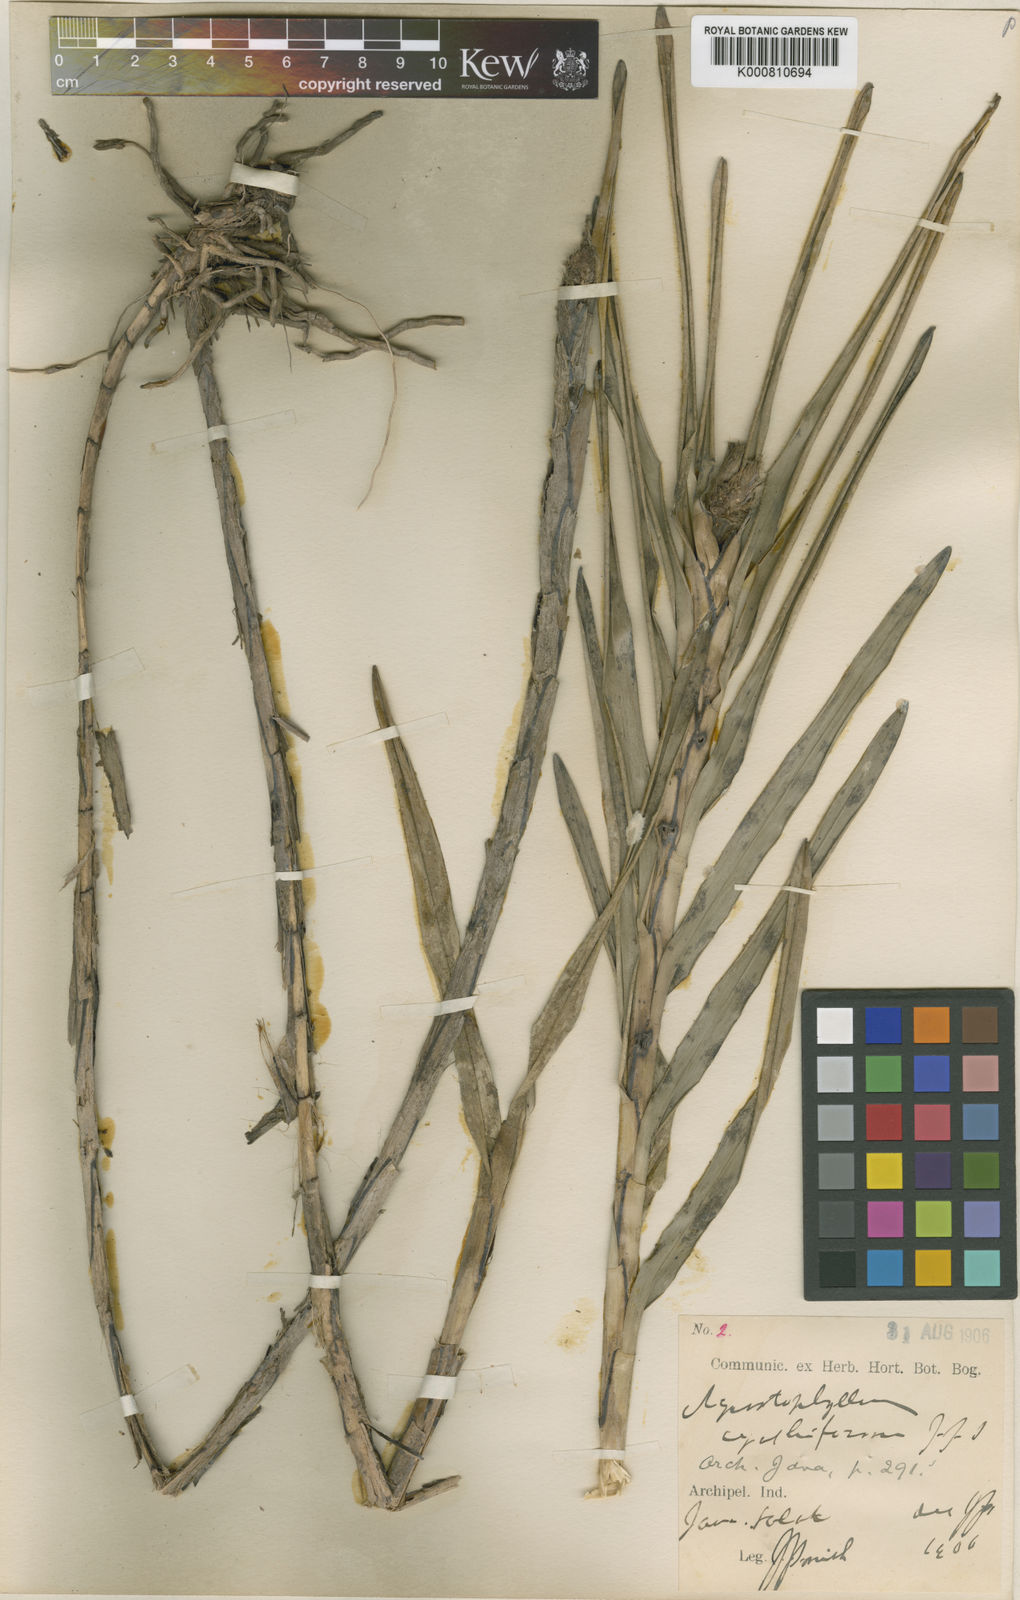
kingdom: Plantae
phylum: Tracheophyta
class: Liliopsida
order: Asparagales
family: Orchidaceae
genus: Agrostophyllum
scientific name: Agrostophyllum cyathiforme
